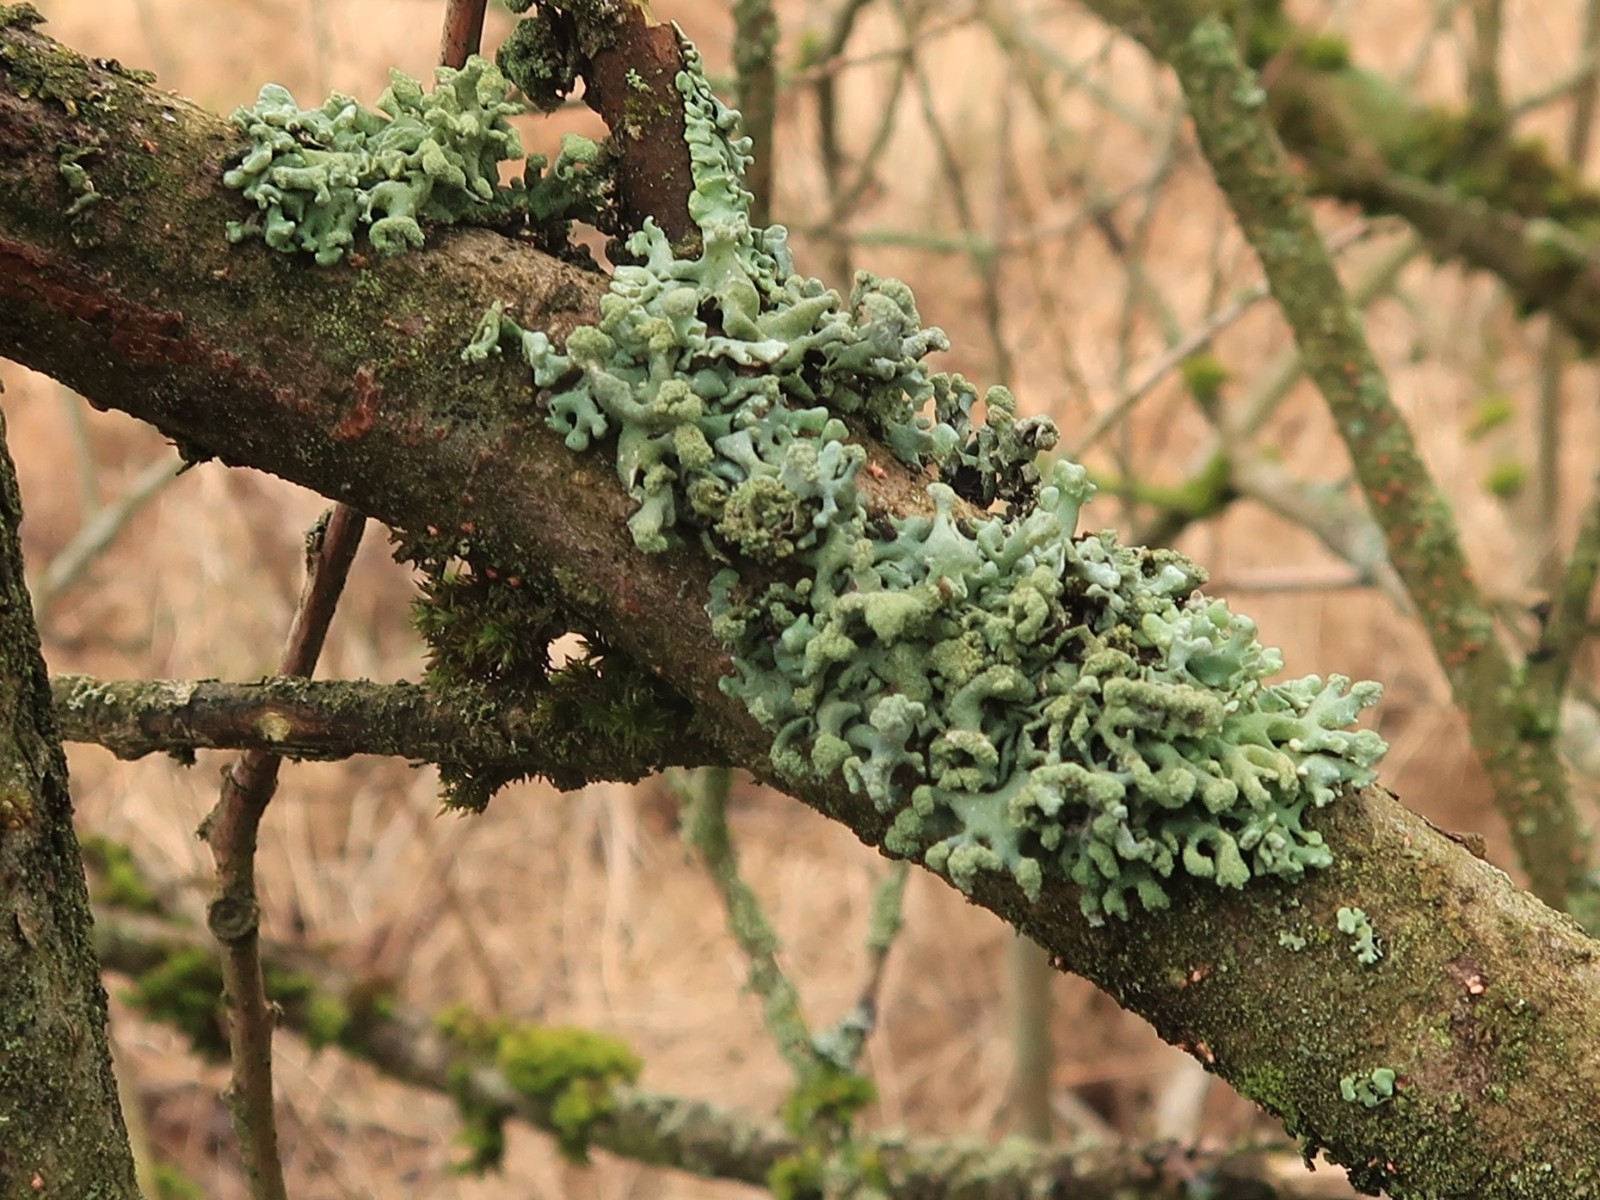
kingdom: Fungi
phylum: Ascomycota
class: Lecanoromycetes
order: Lecanorales
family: Parmeliaceae
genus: Hypogymnia
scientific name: Hypogymnia tubulosa
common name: finger-kvistlav
